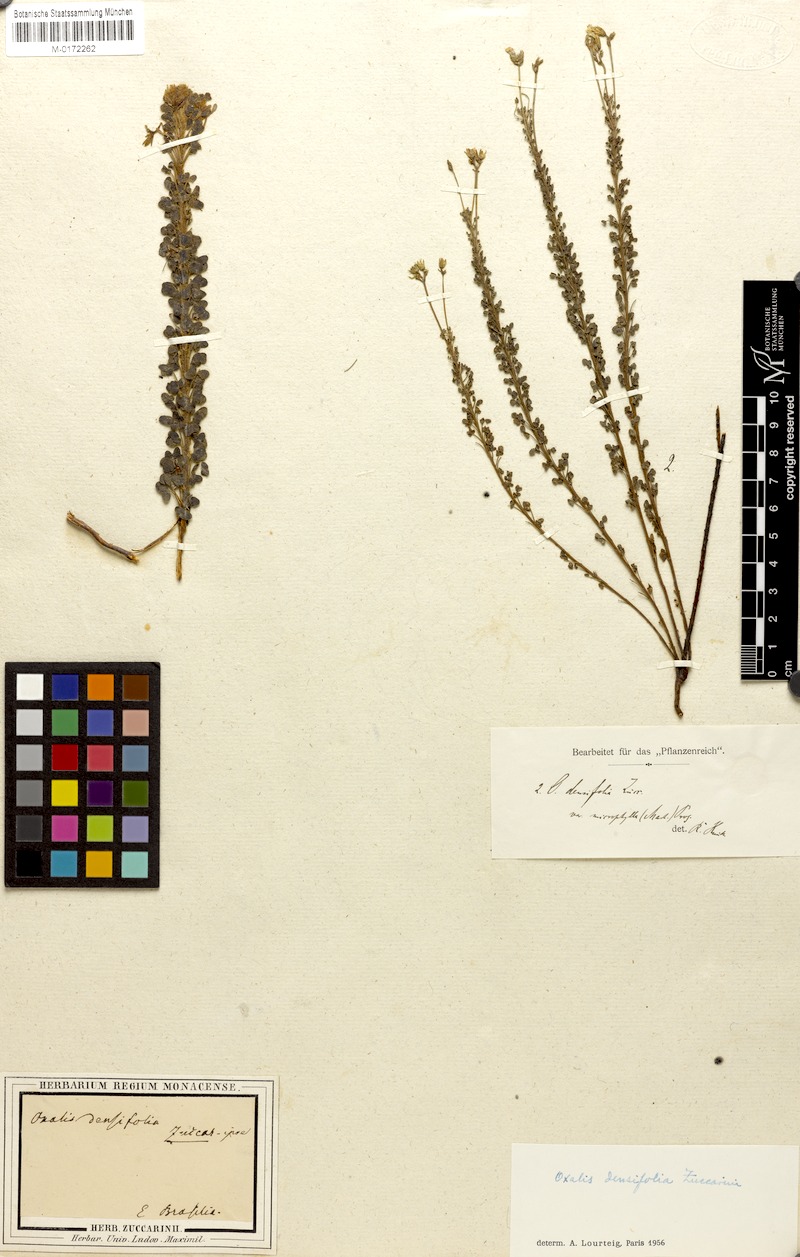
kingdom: Plantae
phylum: Tracheophyta
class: Magnoliopsida
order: Oxalidales
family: Oxalidaceae
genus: Oxalis
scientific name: Oxalis densifolia
